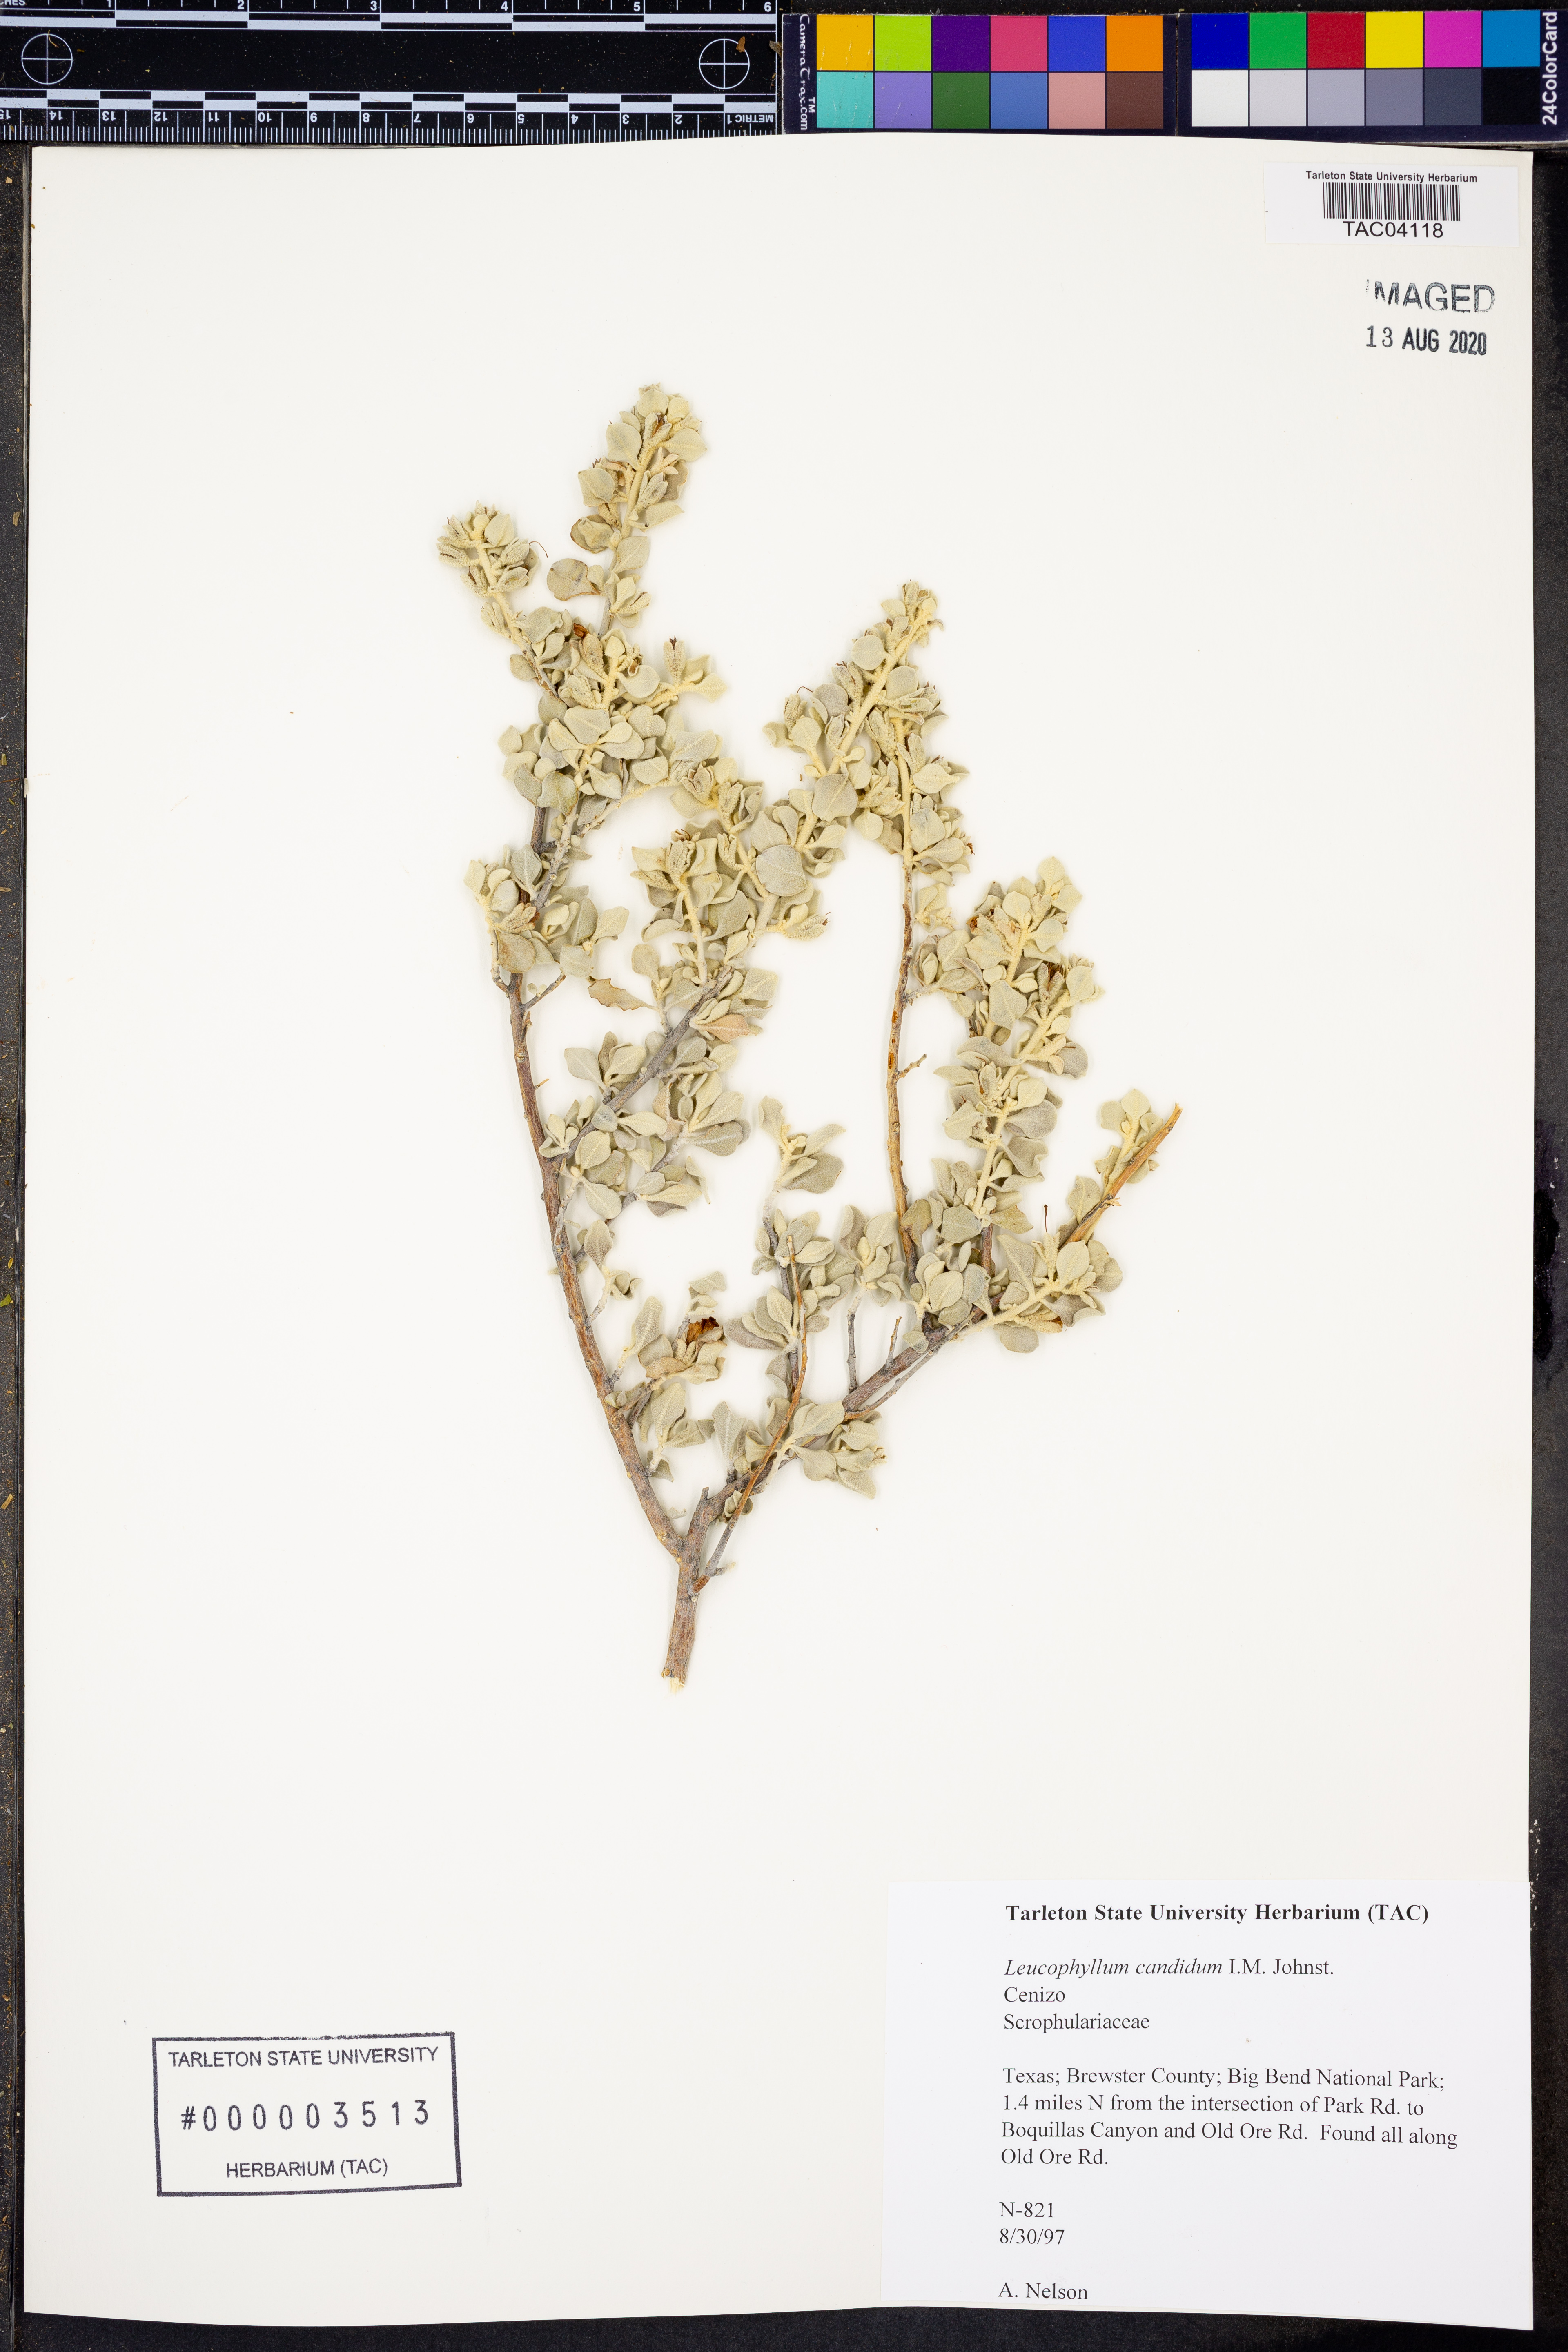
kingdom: Plantae
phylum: Tracheophyta
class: Magnoliopsida
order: Lamiales
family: Scrophulariaceae
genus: Leucophyllum
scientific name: Leucophyllum candidum
